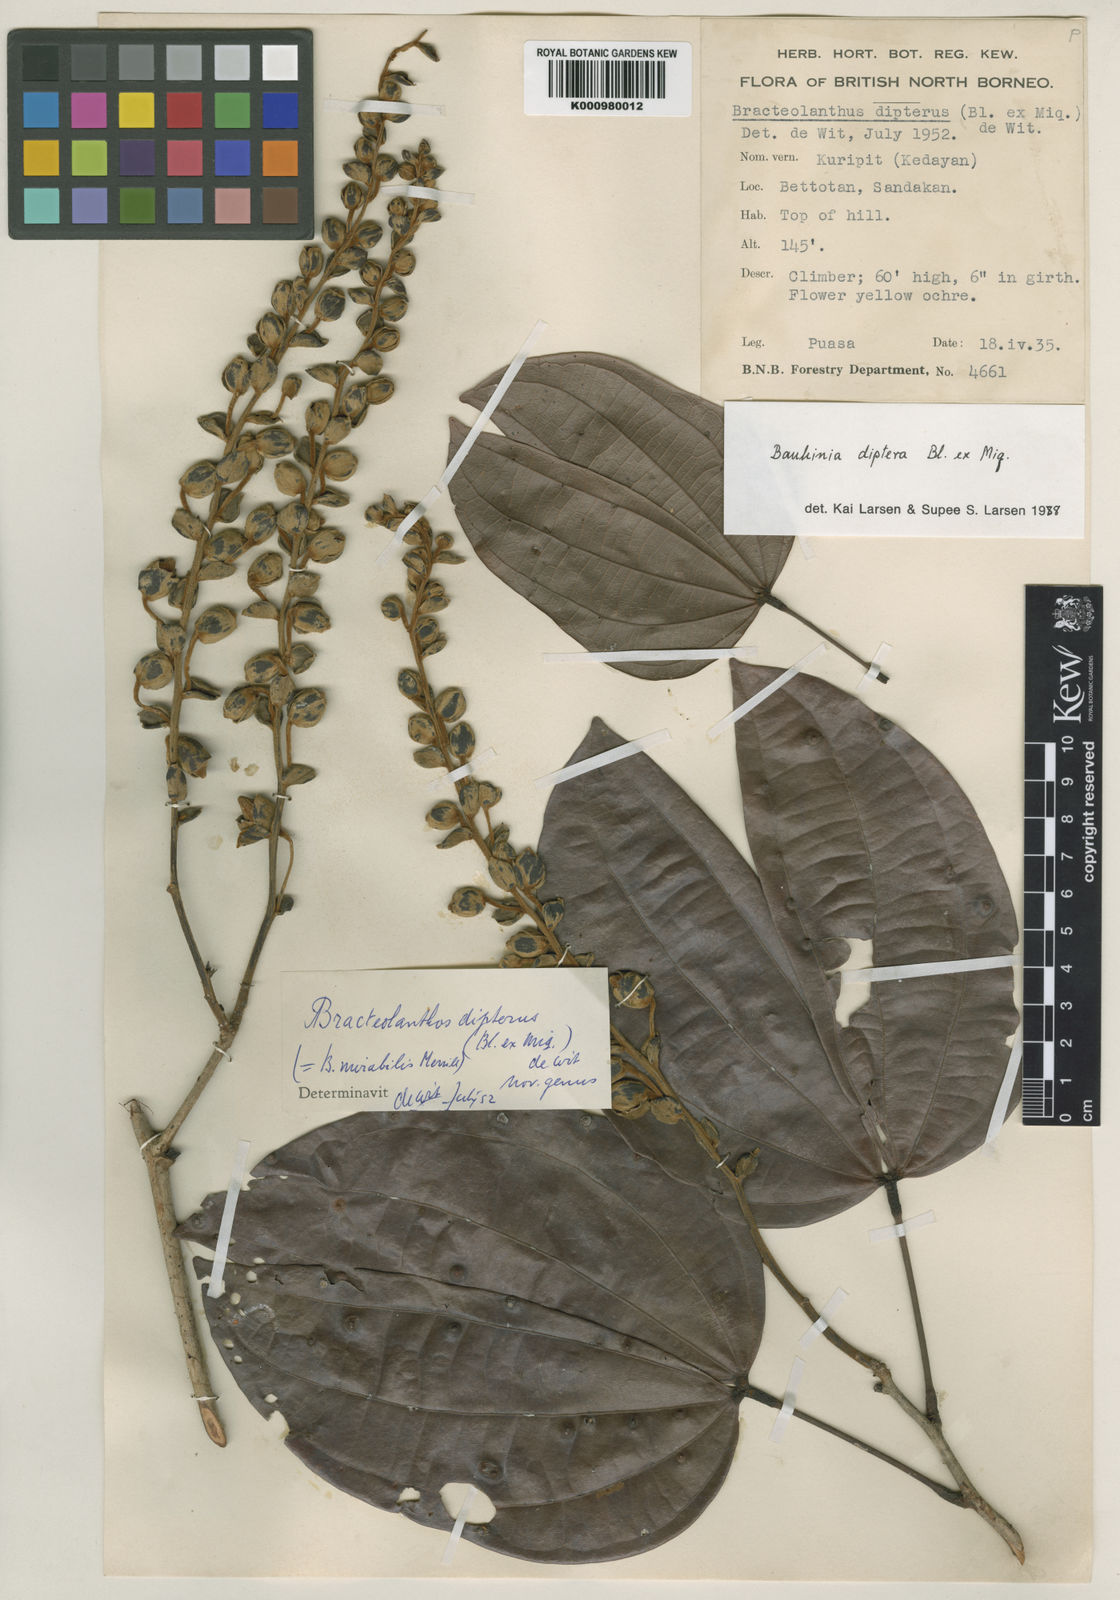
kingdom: Plantae
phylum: Tracheophyta
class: Magnoliopsida
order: Fabales
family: Fabaceae
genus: Bauhinia
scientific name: Bauhinia diptera
